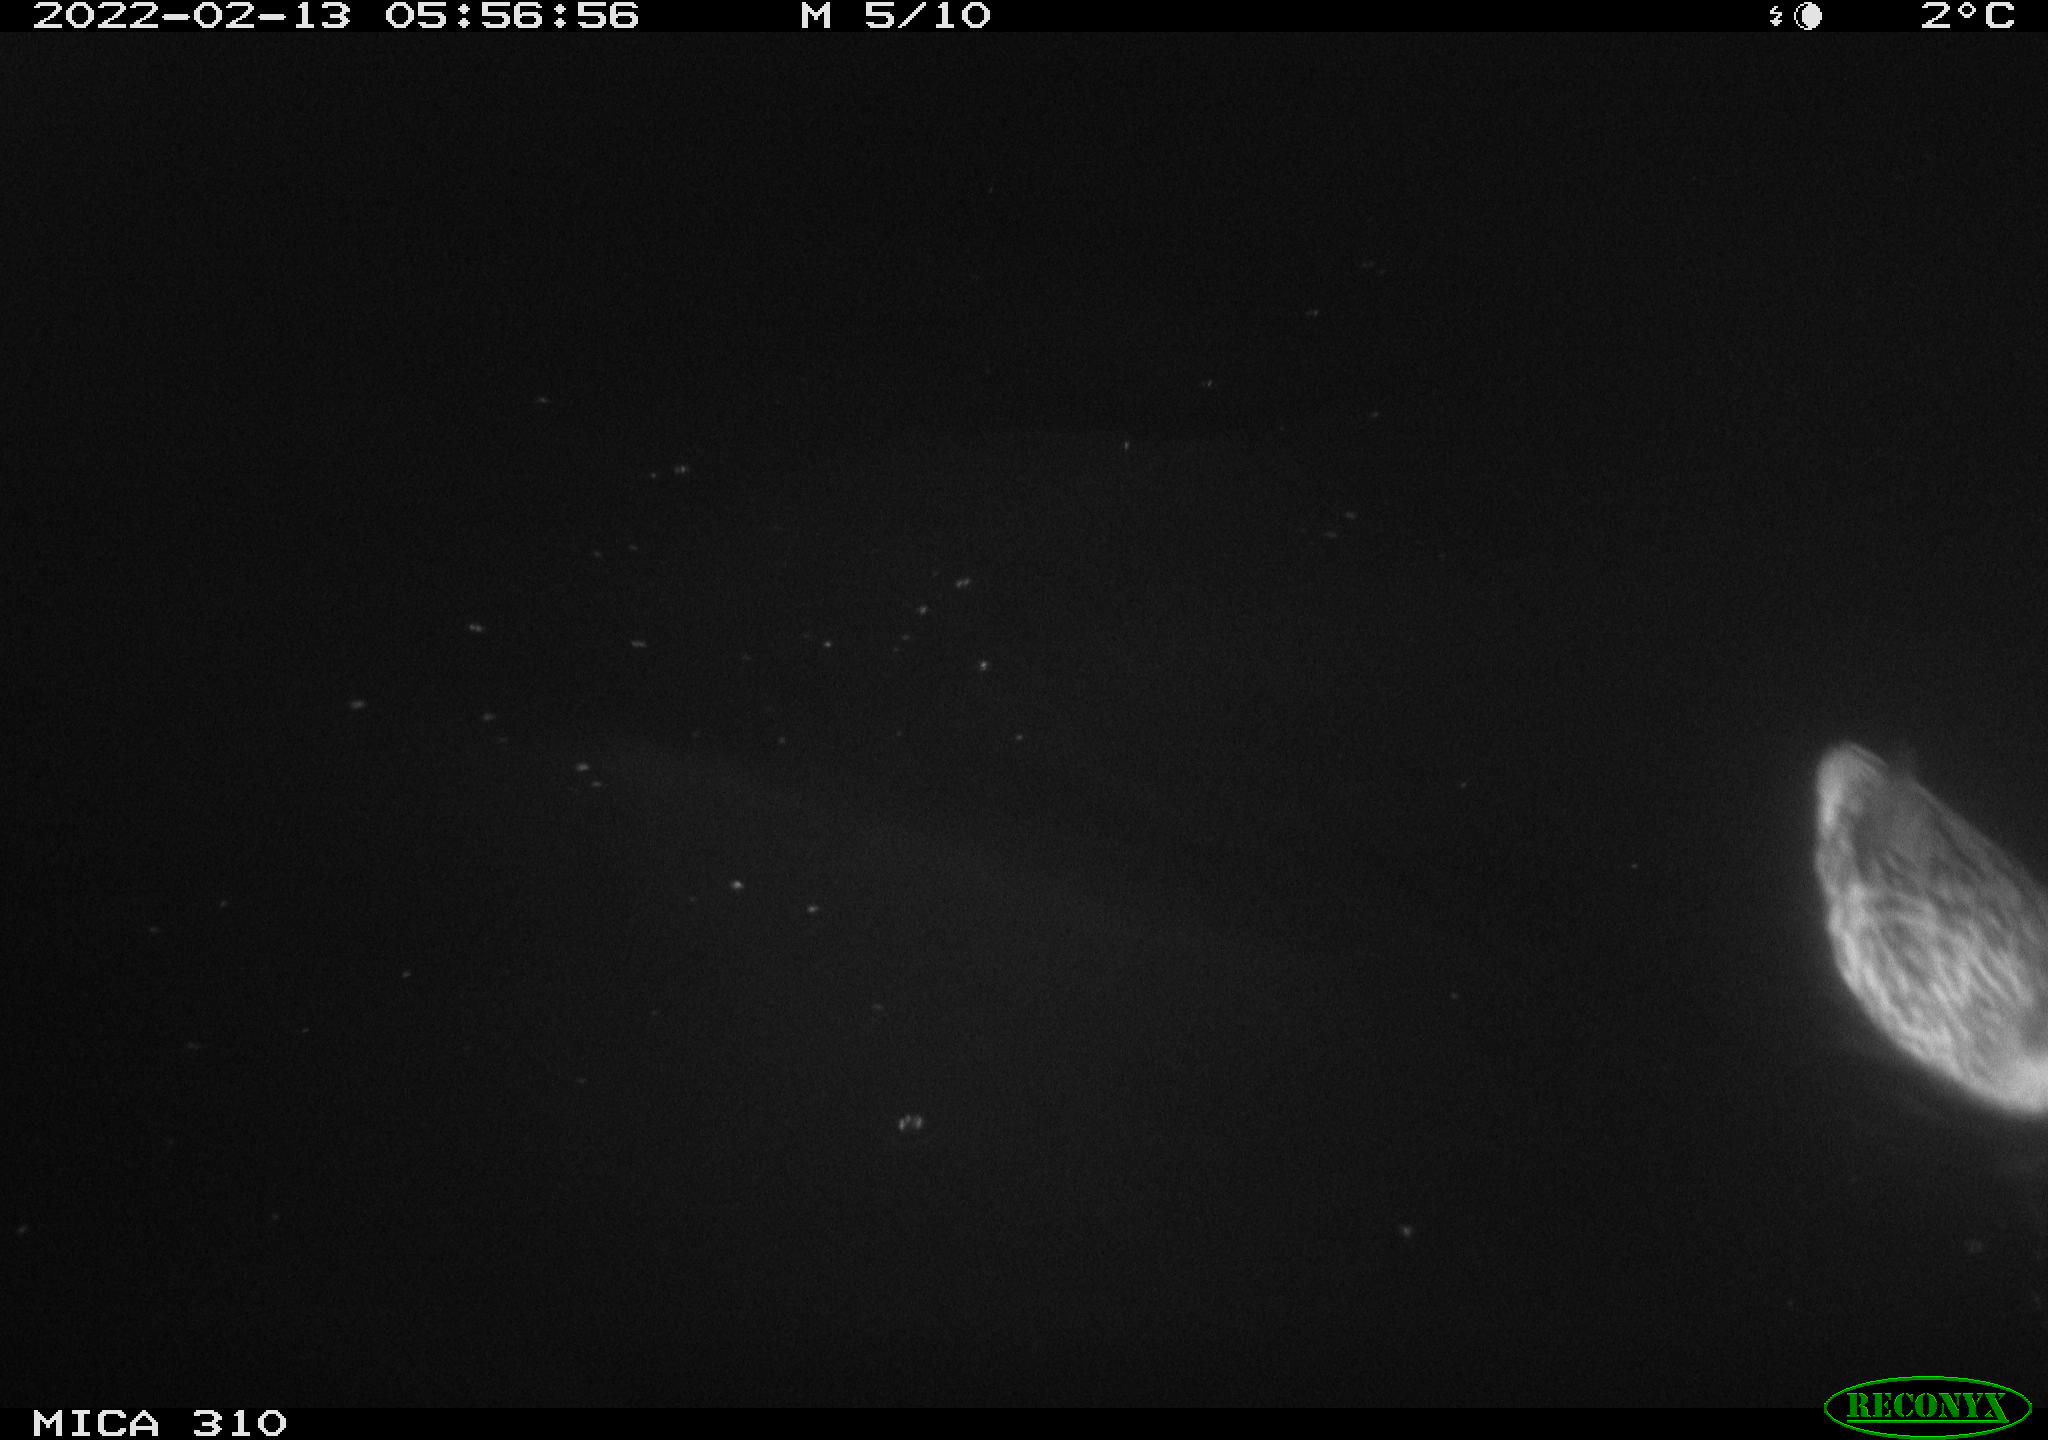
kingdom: Animalia
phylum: Chordata
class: Aves
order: Anseriformes
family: Anatidae
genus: Anas
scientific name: Anas platyrhynchos
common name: Mallard
